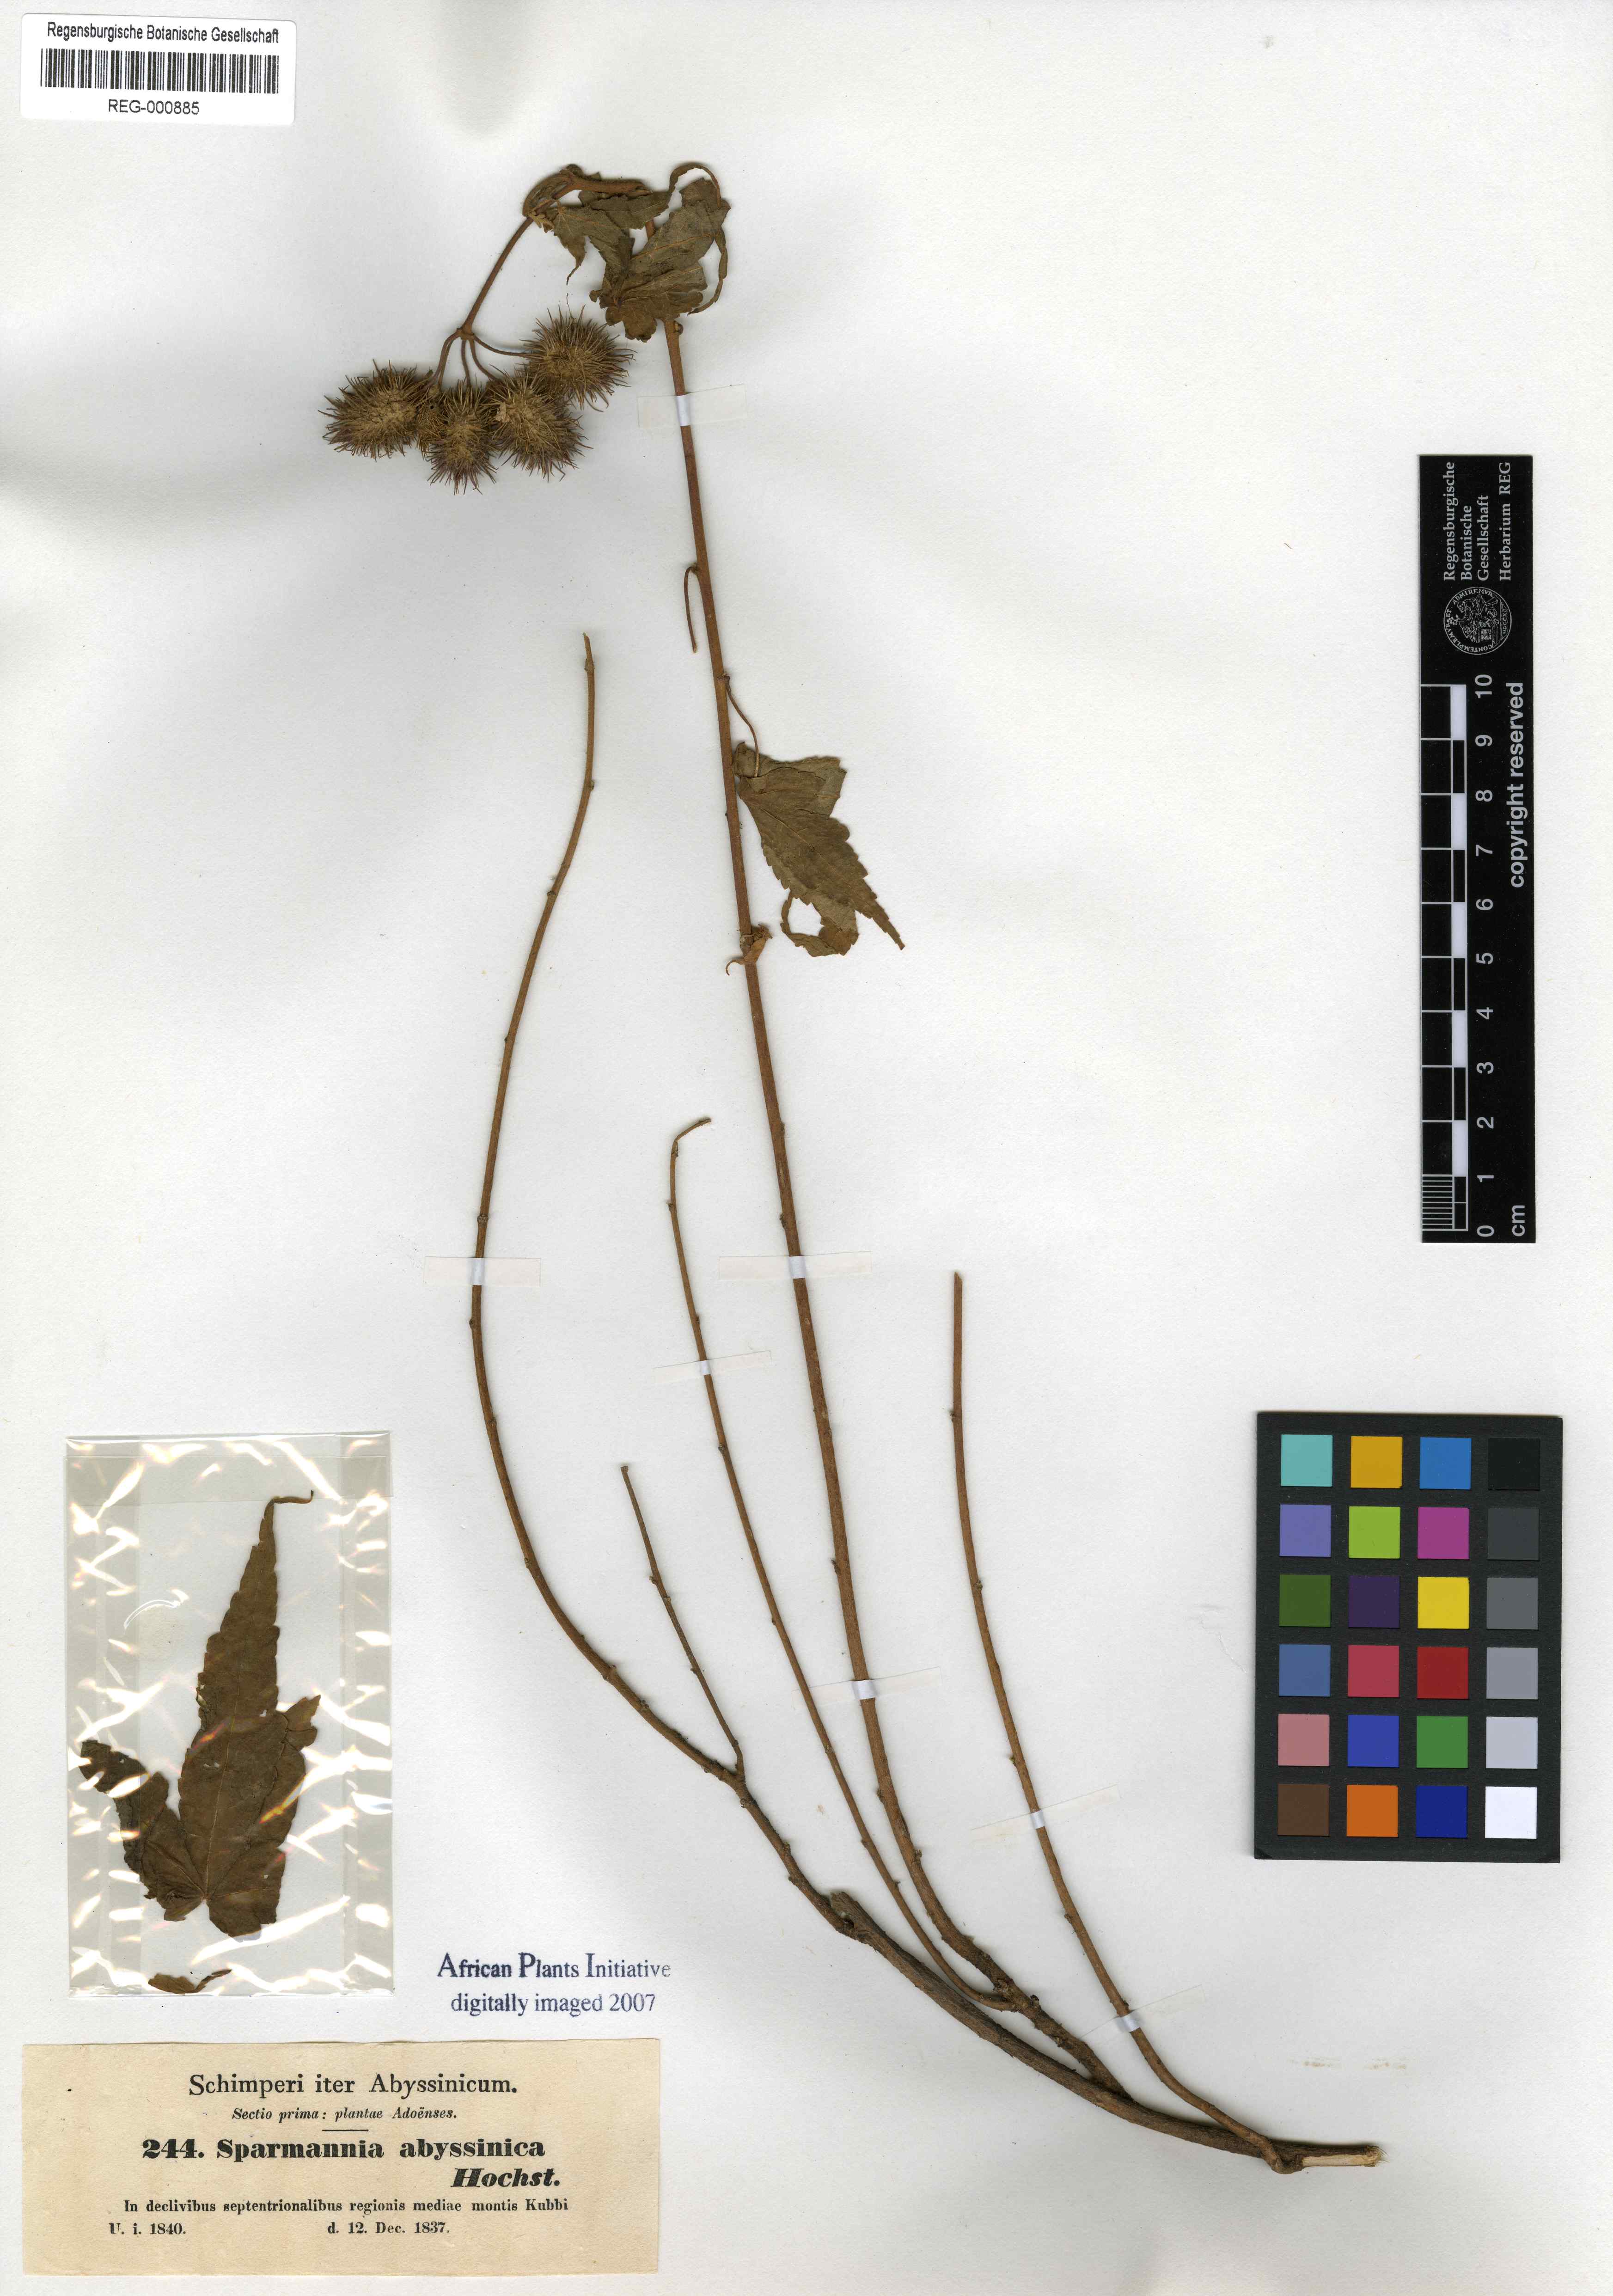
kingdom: Plantae
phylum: Tracheophyta
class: Magnoliopsida
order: Malvales
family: Malvaceae
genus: Sparmannia
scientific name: Sparmannia abyssinica
